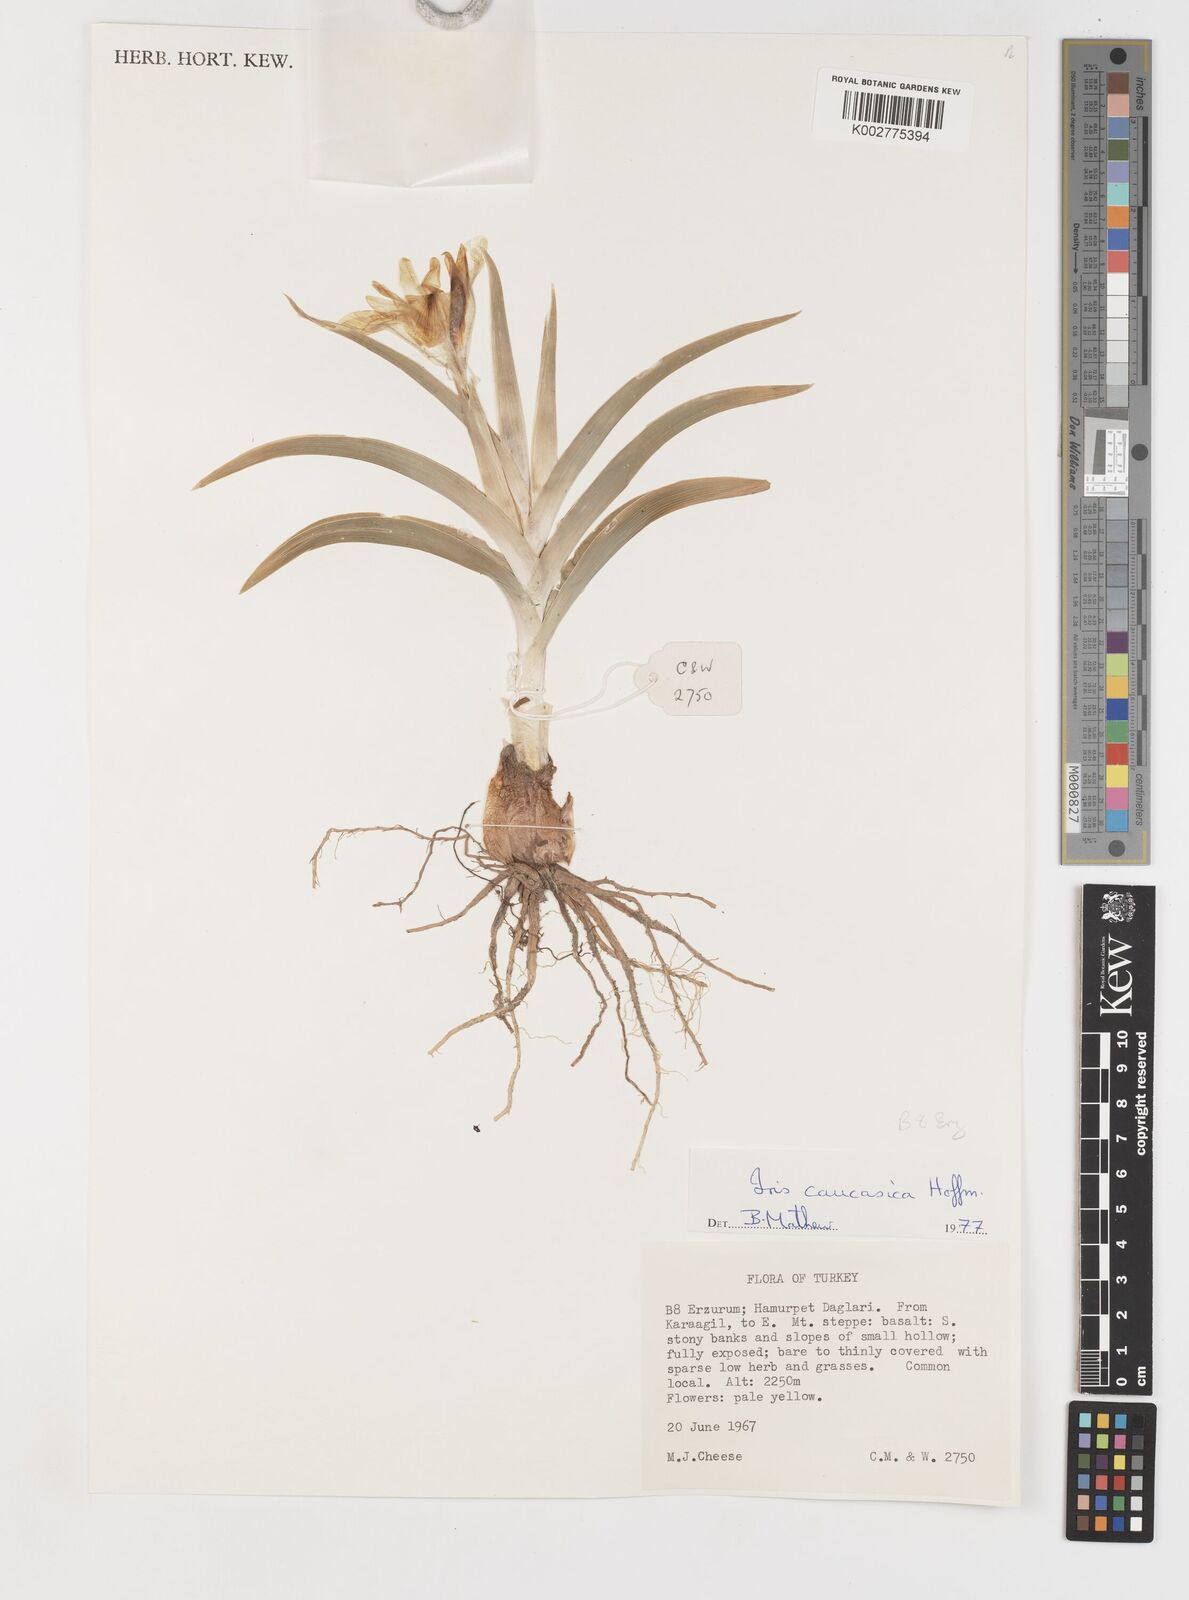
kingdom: Plantae
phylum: Tracheophyta
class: Liliopsida
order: Asparagales
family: Iridaceae
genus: Iris
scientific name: Iris caucasica
